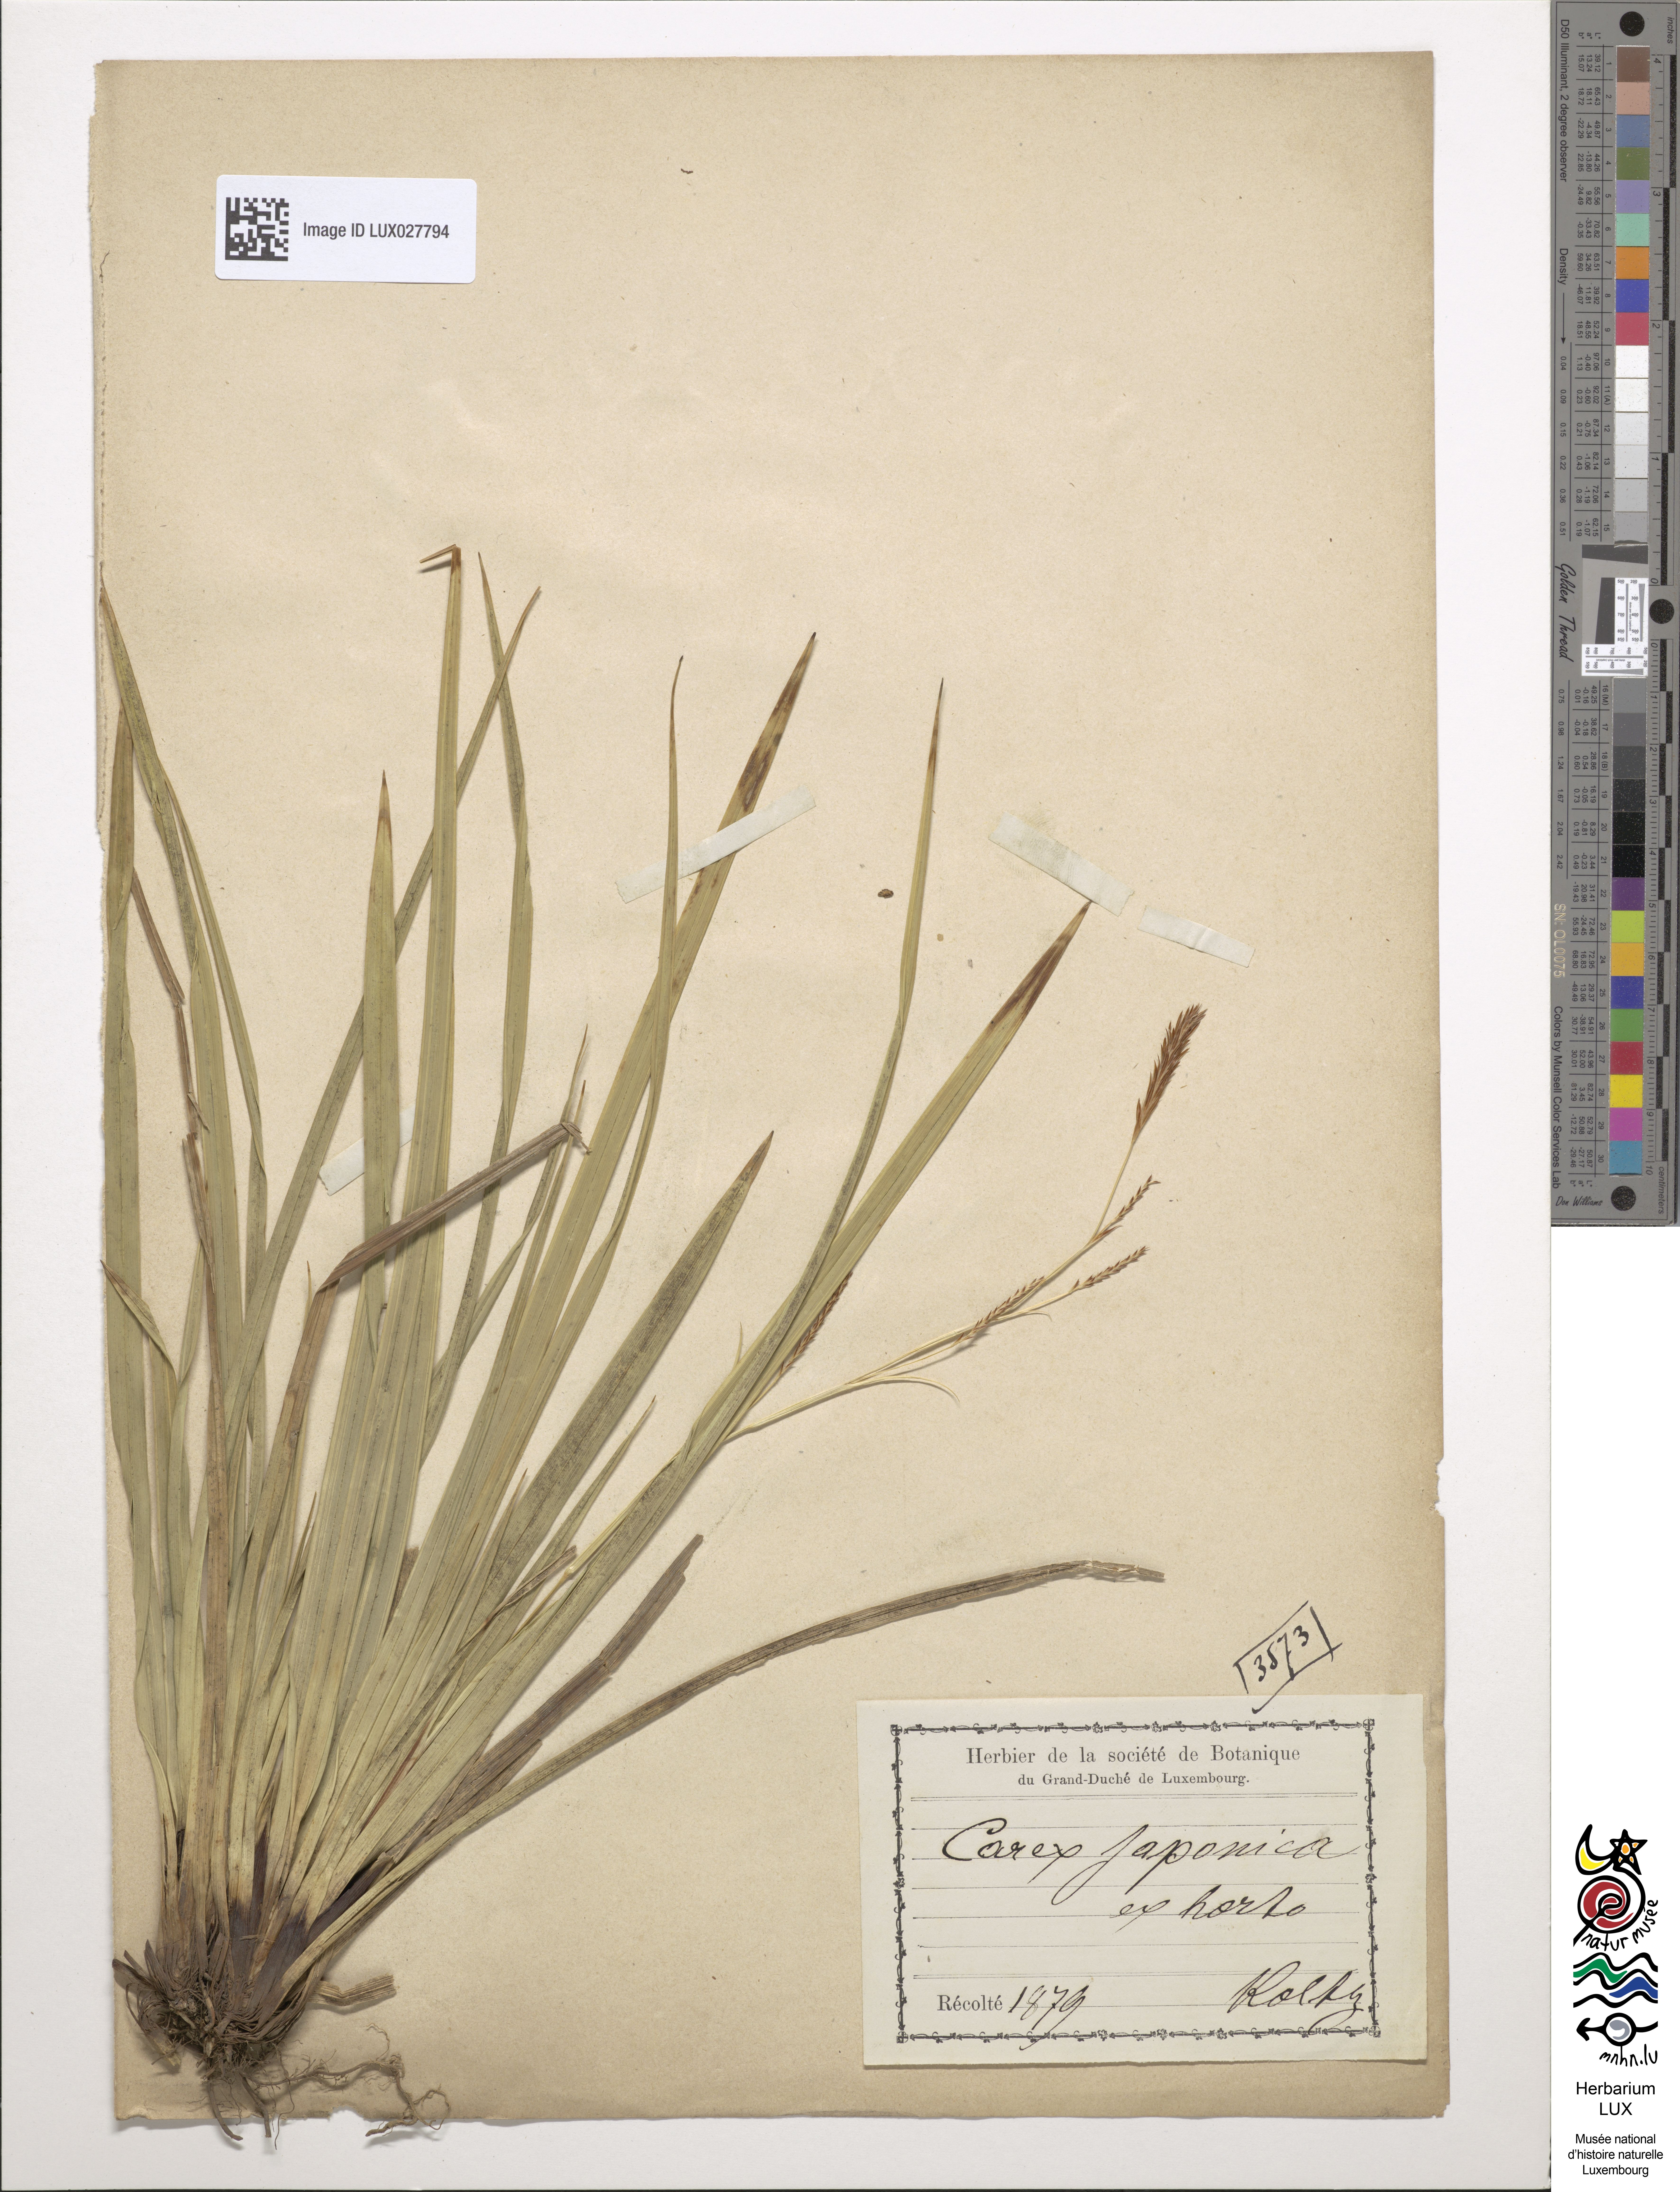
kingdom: Plantae
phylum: Tracheophyta
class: Liliopsida
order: Poales
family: Cyperaceae
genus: Carex
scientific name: Carex japonica
